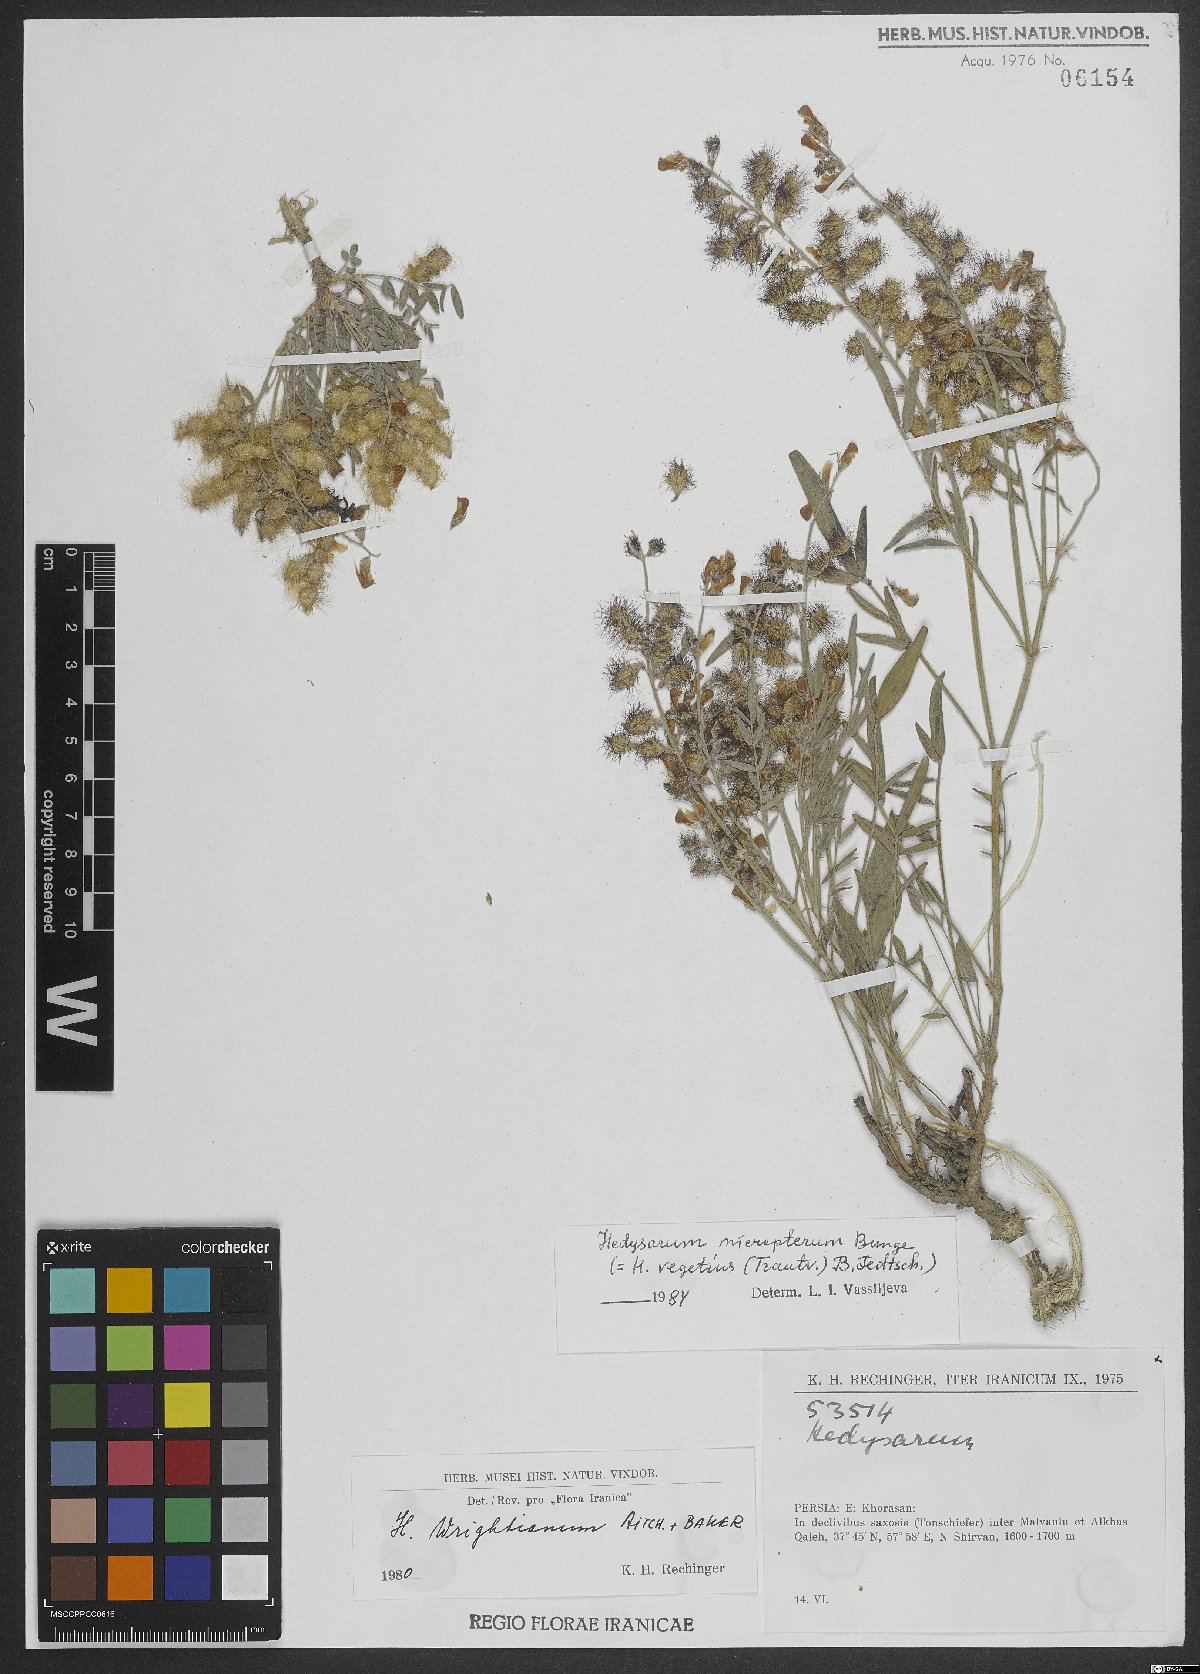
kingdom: Plantae
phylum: Tracheophyta
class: Magnoliopsida
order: Fabales
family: Fabaceae
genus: Hedysarum
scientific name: Hedysarum micropterum
